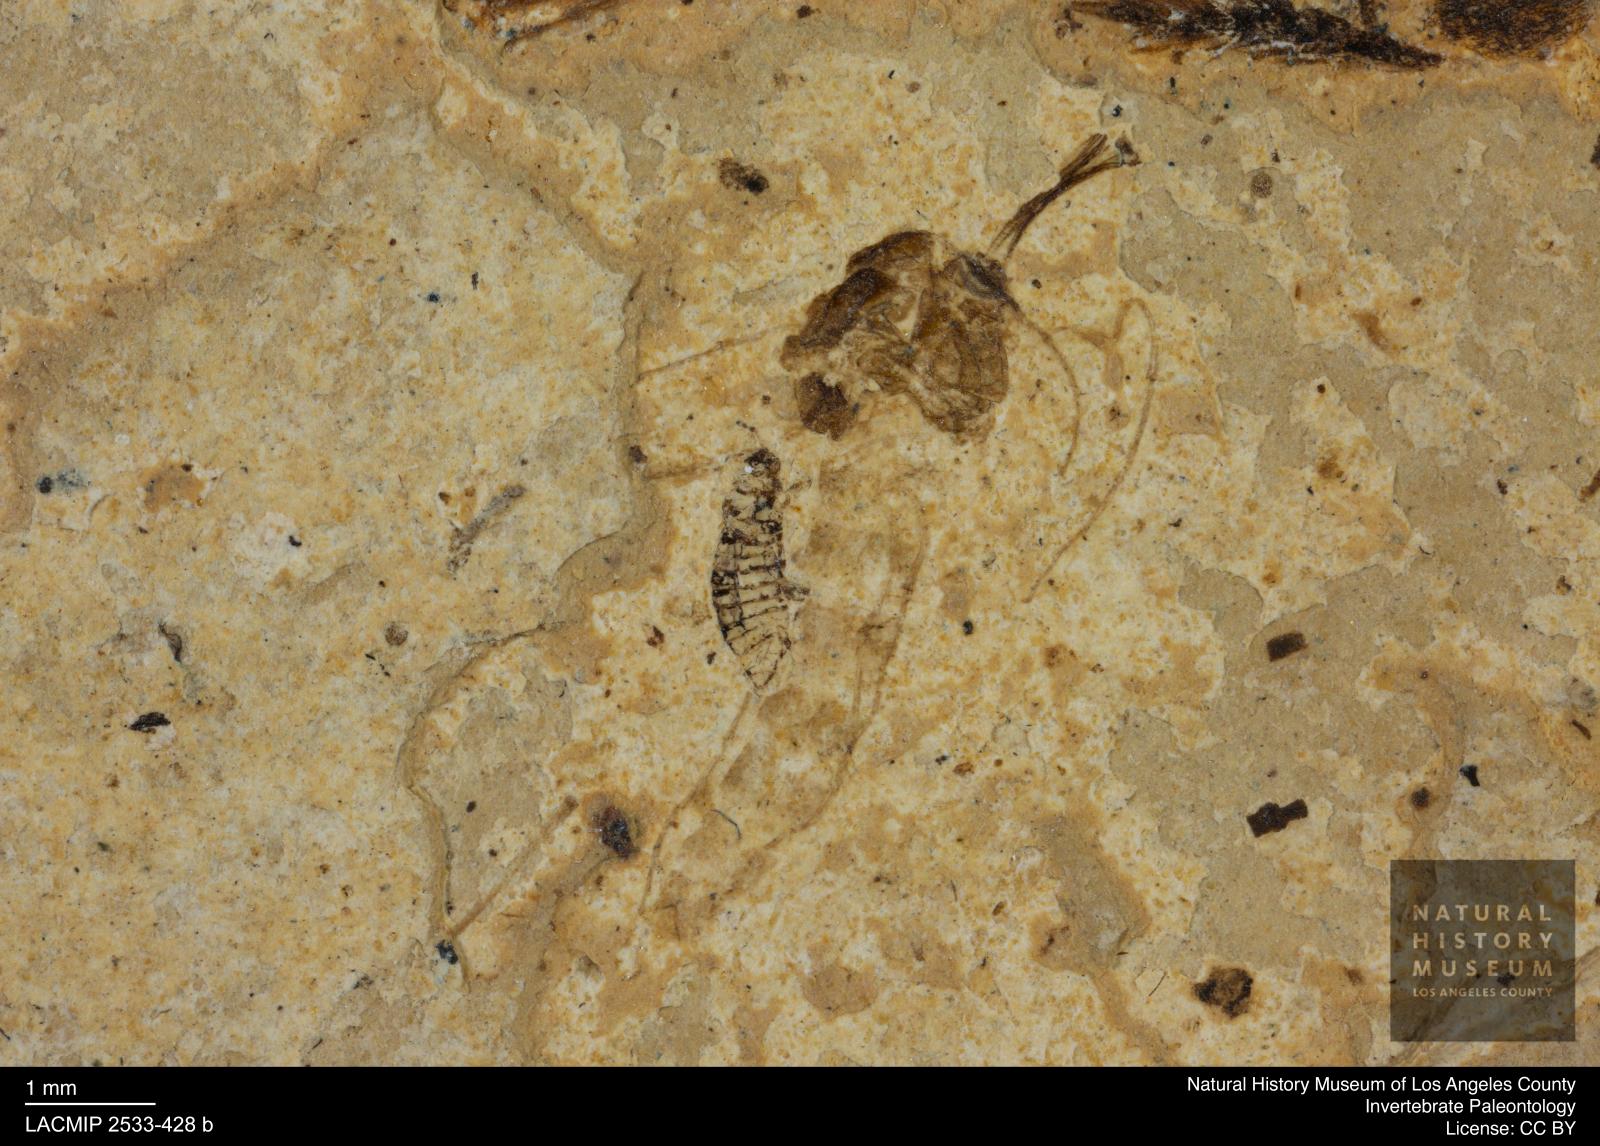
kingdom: Animalia
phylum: Arthropoda
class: Insecta
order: Diptera
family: Chironomidae
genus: Tanypus
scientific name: Tanypus thienemanni
